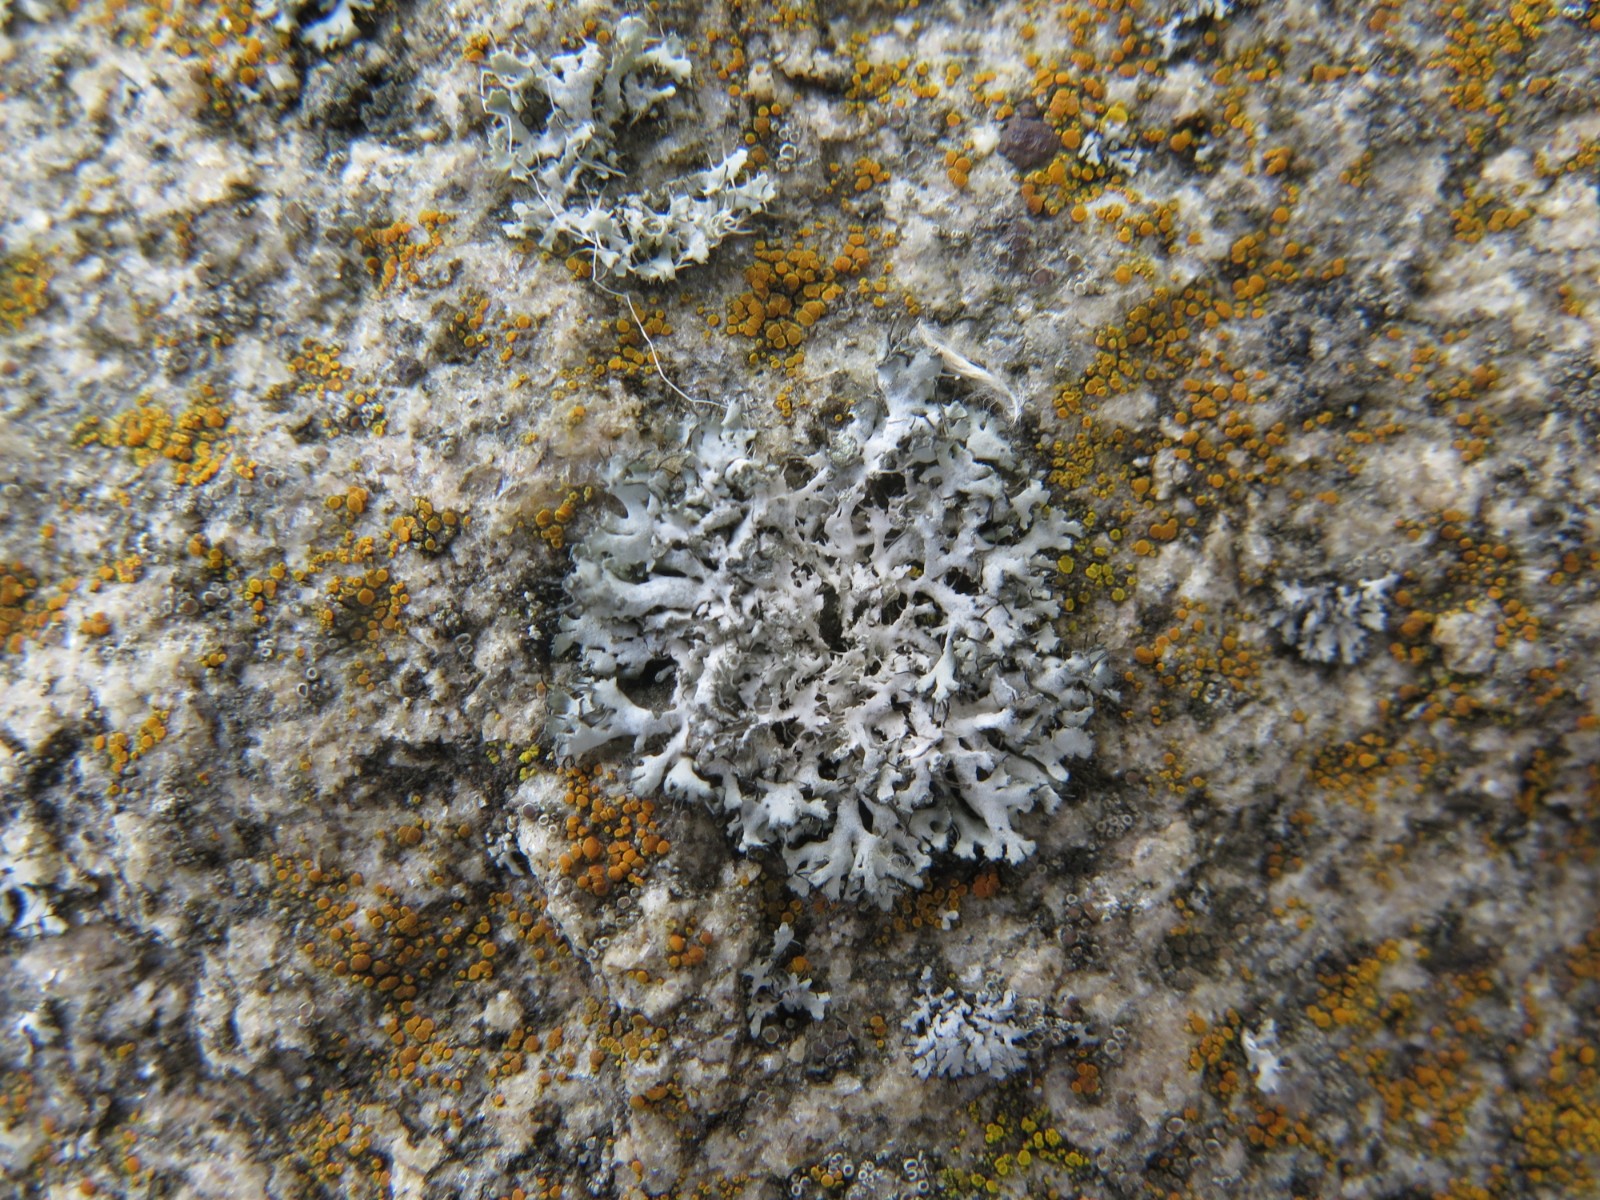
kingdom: Fungi
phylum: Ascomycota
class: Lecanoromycetes
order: Caliciales
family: Physciaceae
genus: Physcia
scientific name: Physcia tenella
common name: spæd rosetlav
